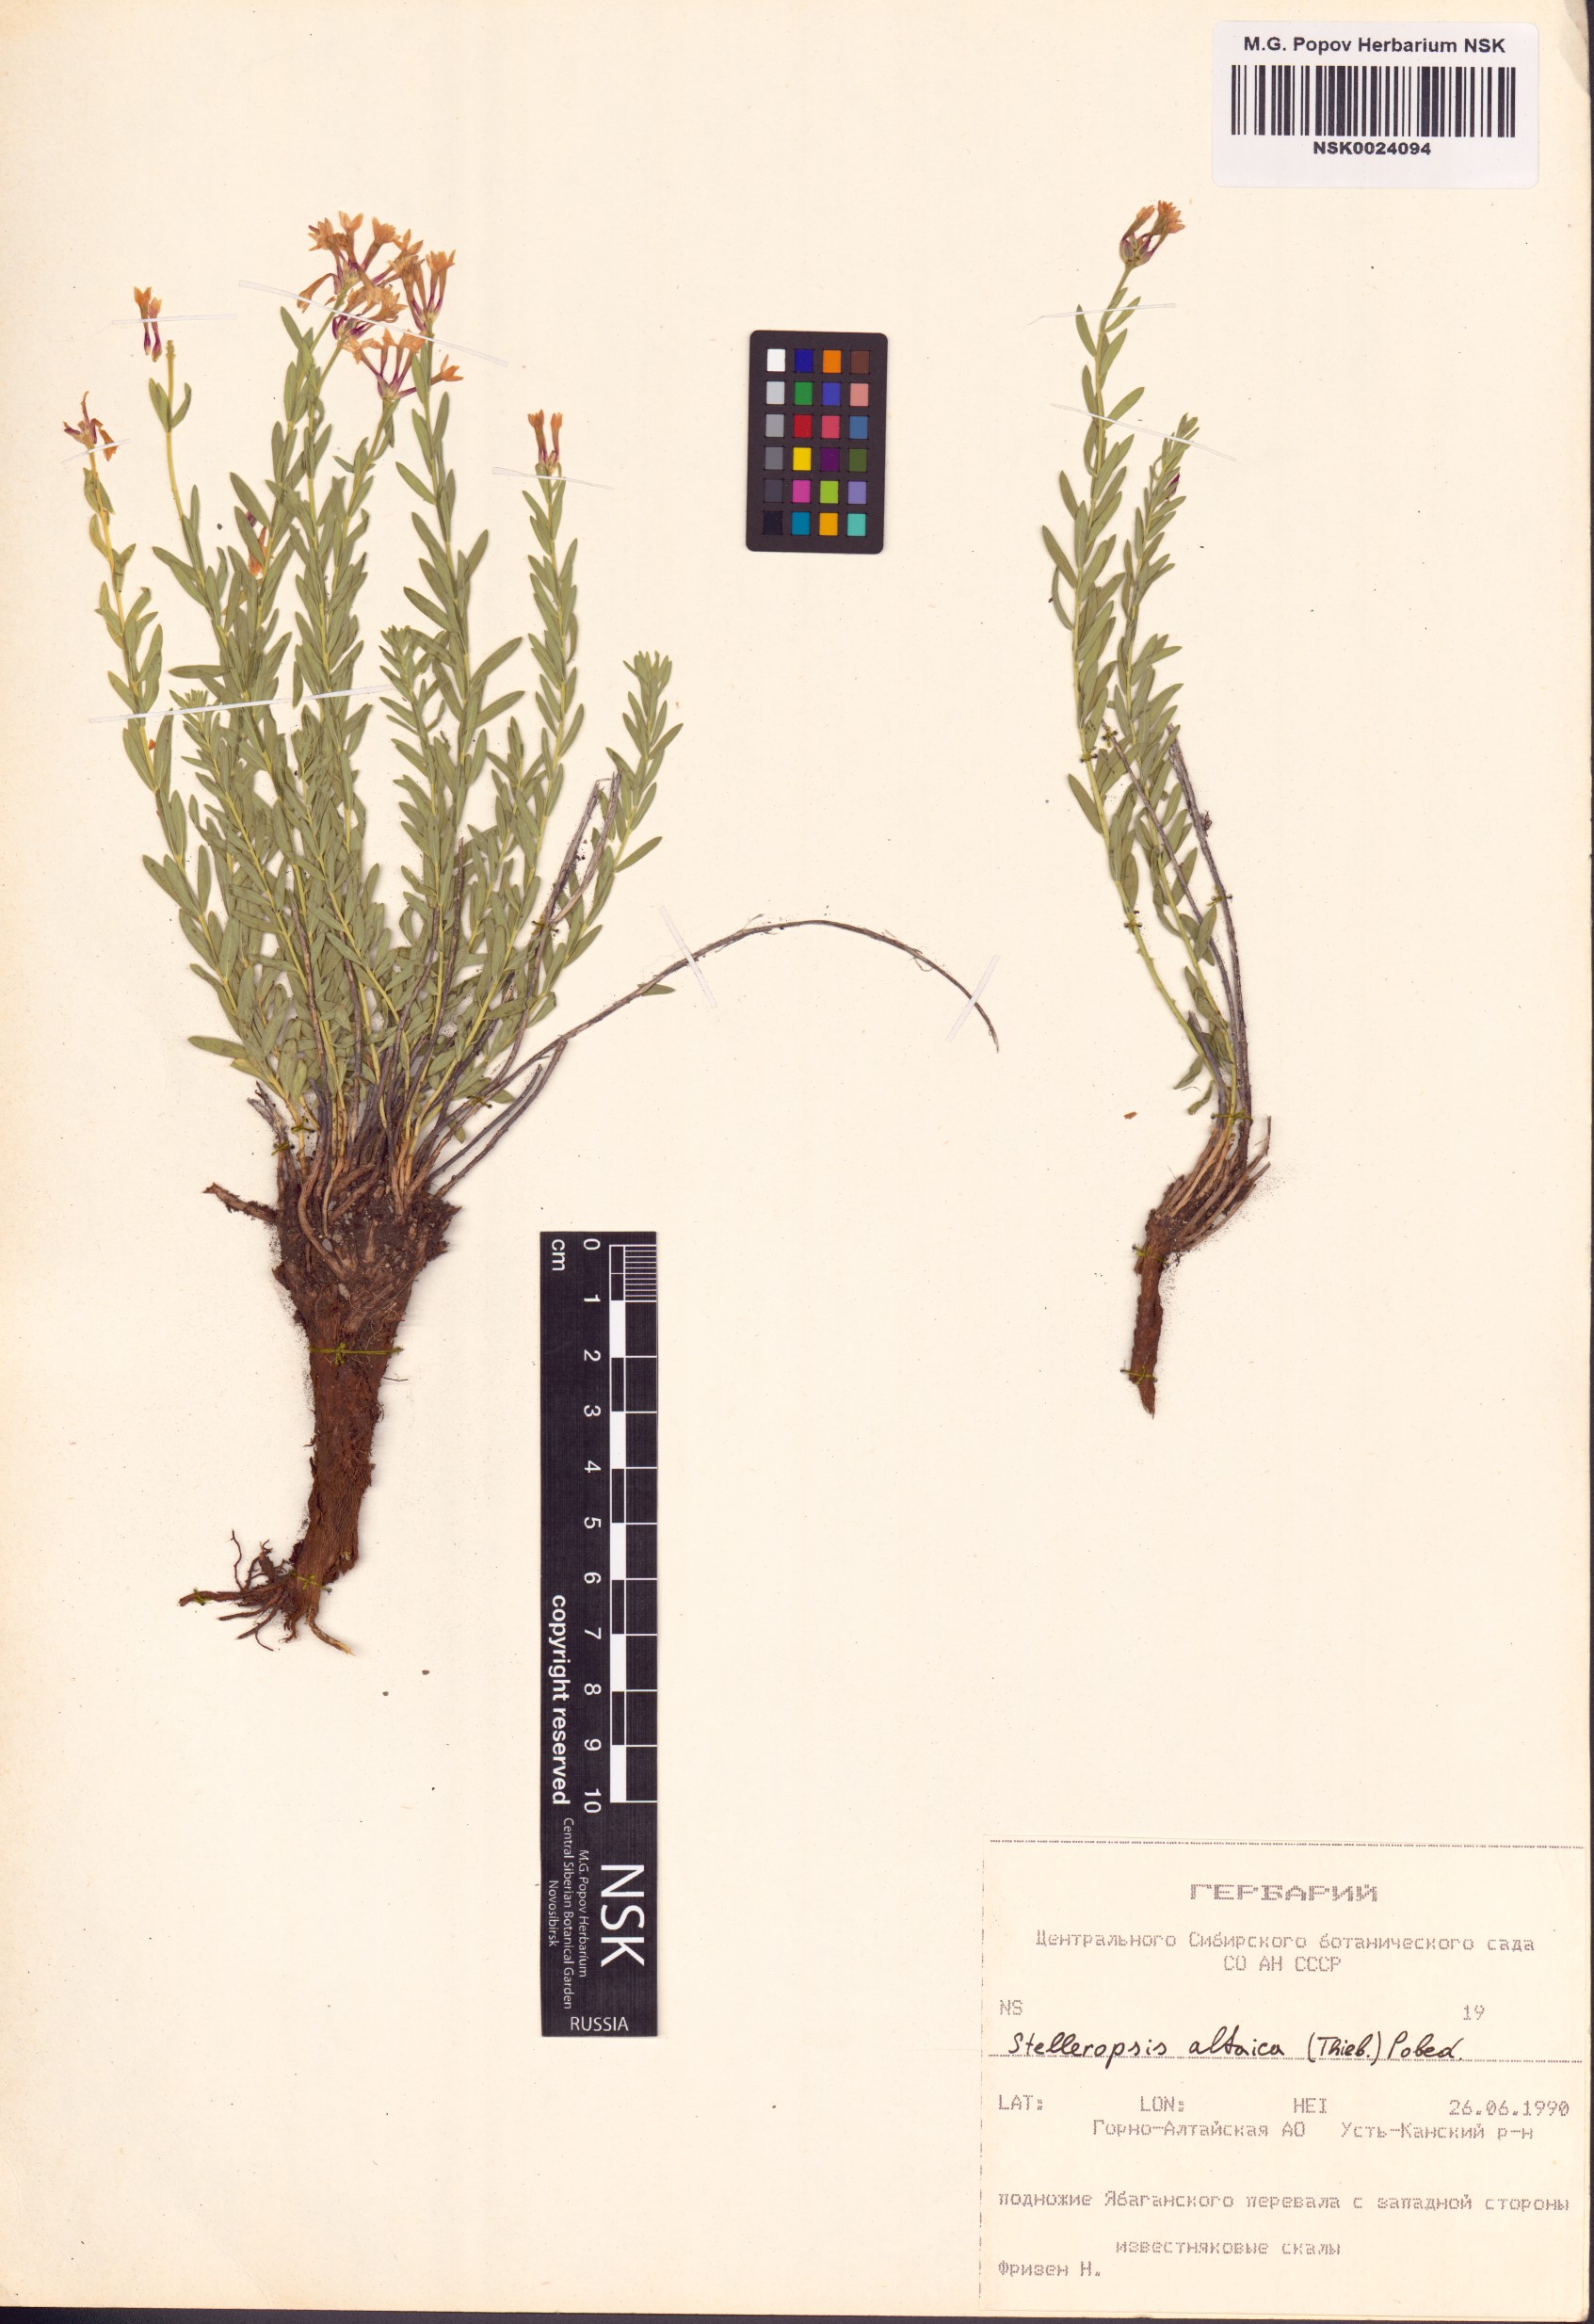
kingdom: Plantae
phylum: Tracheophyta
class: Magnoliopsida
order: Malvales
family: Thymelaeaceae
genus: Diarthron
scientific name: Diarthron altaicum
